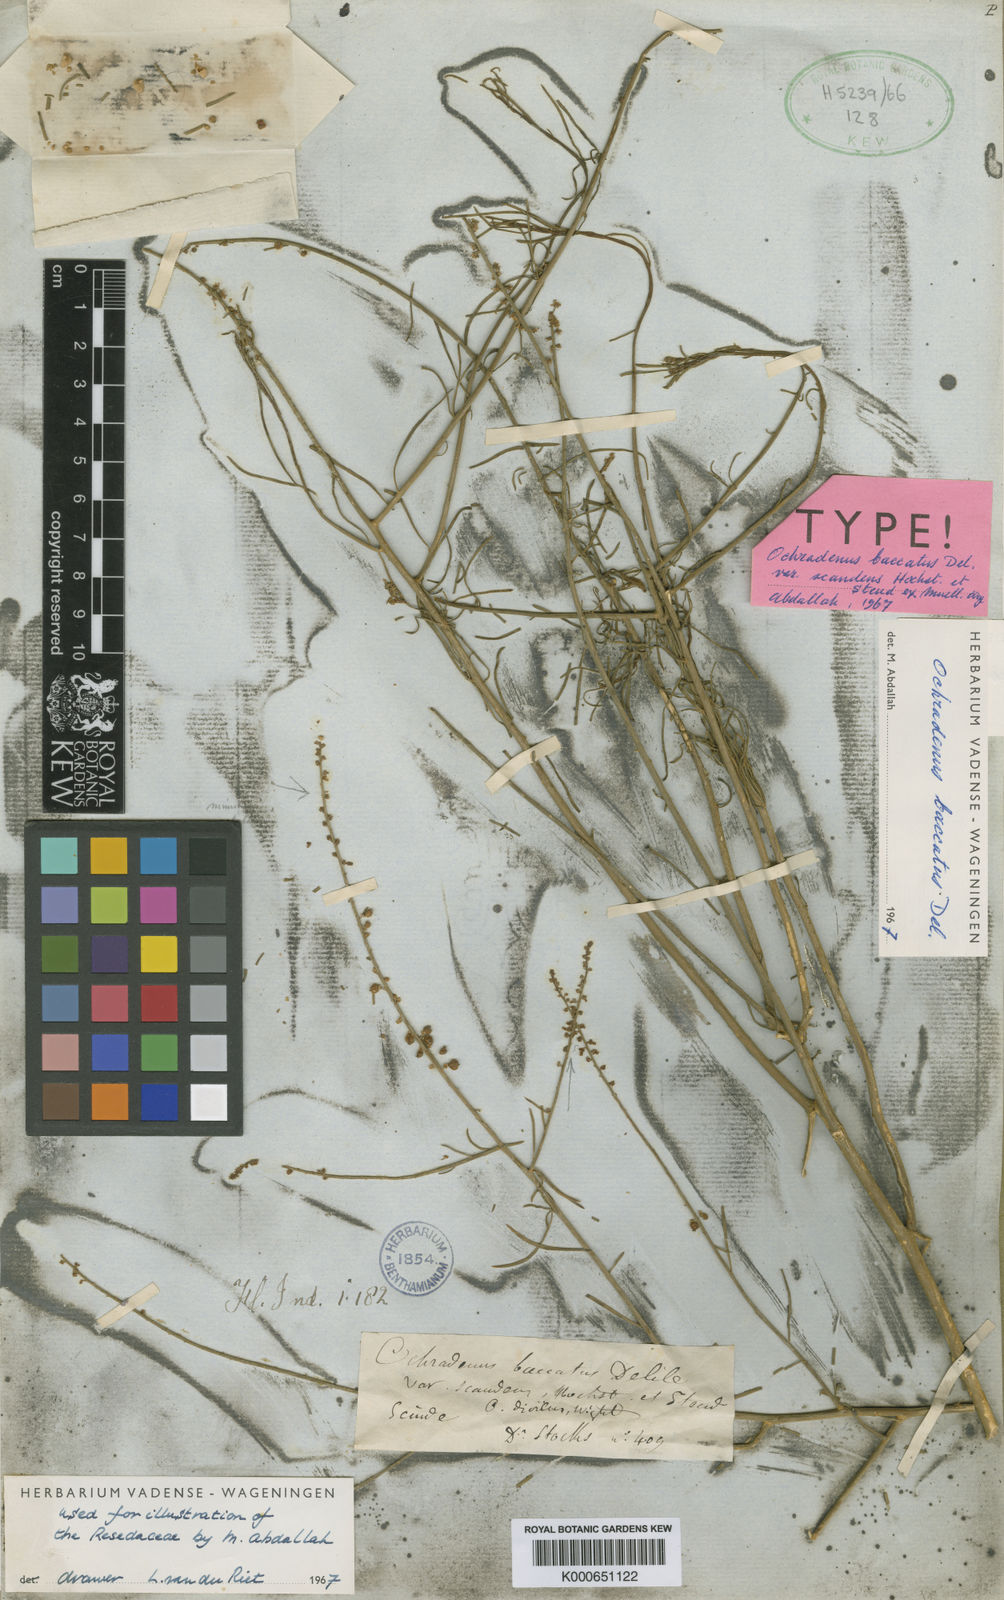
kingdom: Plantae
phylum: Tracheophyta
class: Magnoliopsida
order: Brassicales
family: Resedaceae
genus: Ochradenus
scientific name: Ochradenus baccatus
